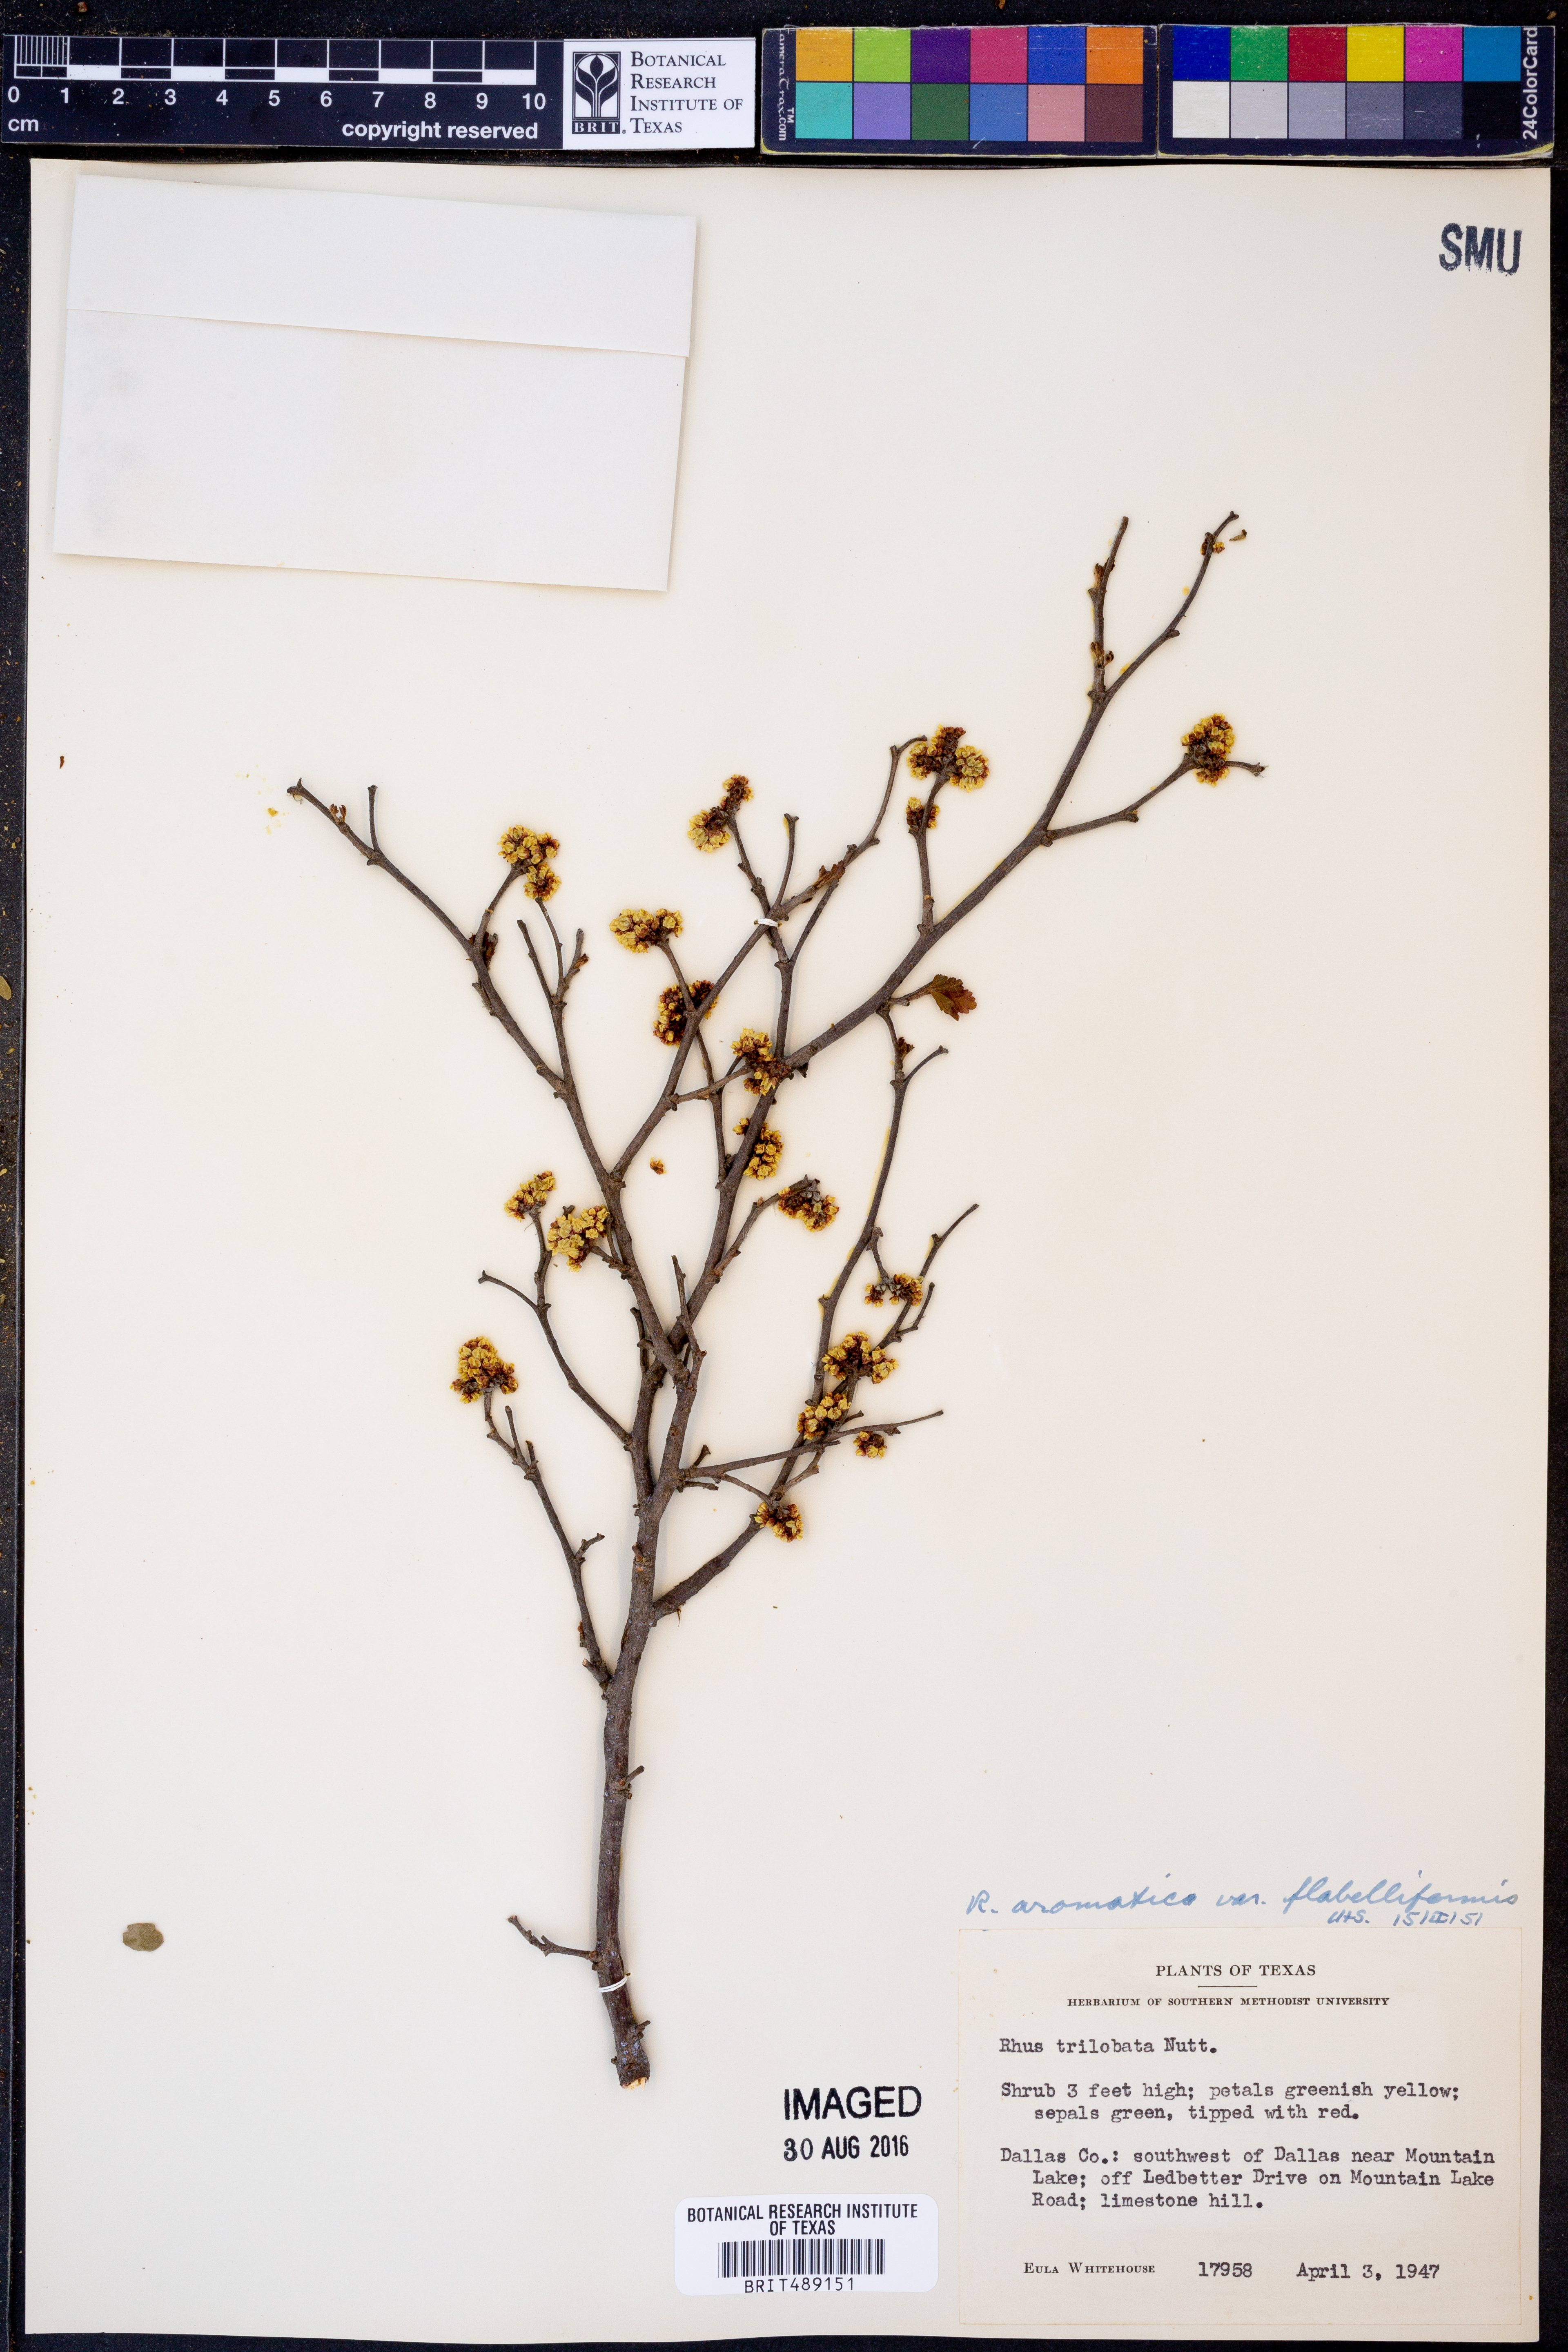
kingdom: Plantae
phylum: Tracheophyta
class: Magnoliopsida
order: Sapindales
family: Anacardiaceae
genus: Rhus
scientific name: Rhus trilobata
